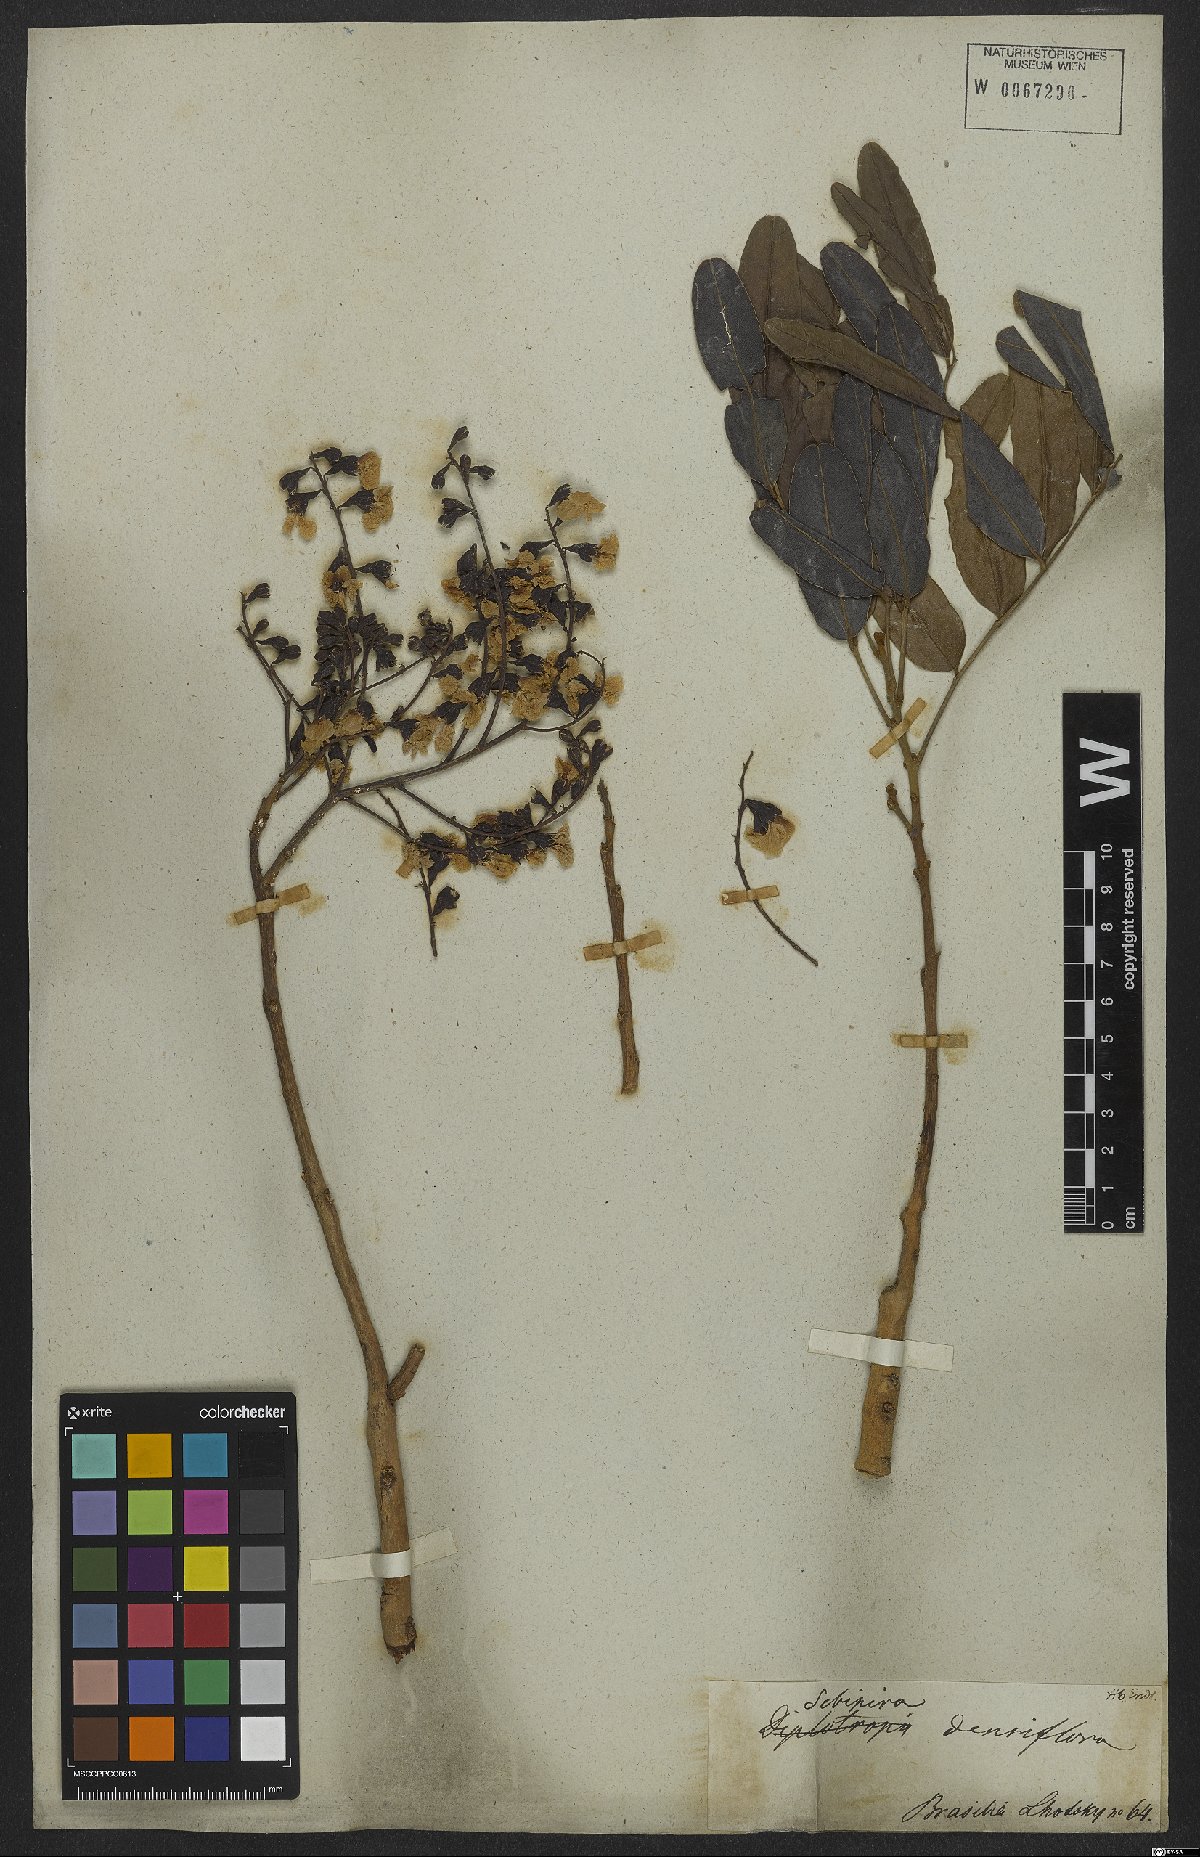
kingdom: Plantae
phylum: Tracheophyta
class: Magnoliopsida
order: Fabales
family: Fabaceae
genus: Bowdichia
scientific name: Bowdichia virgilioides
